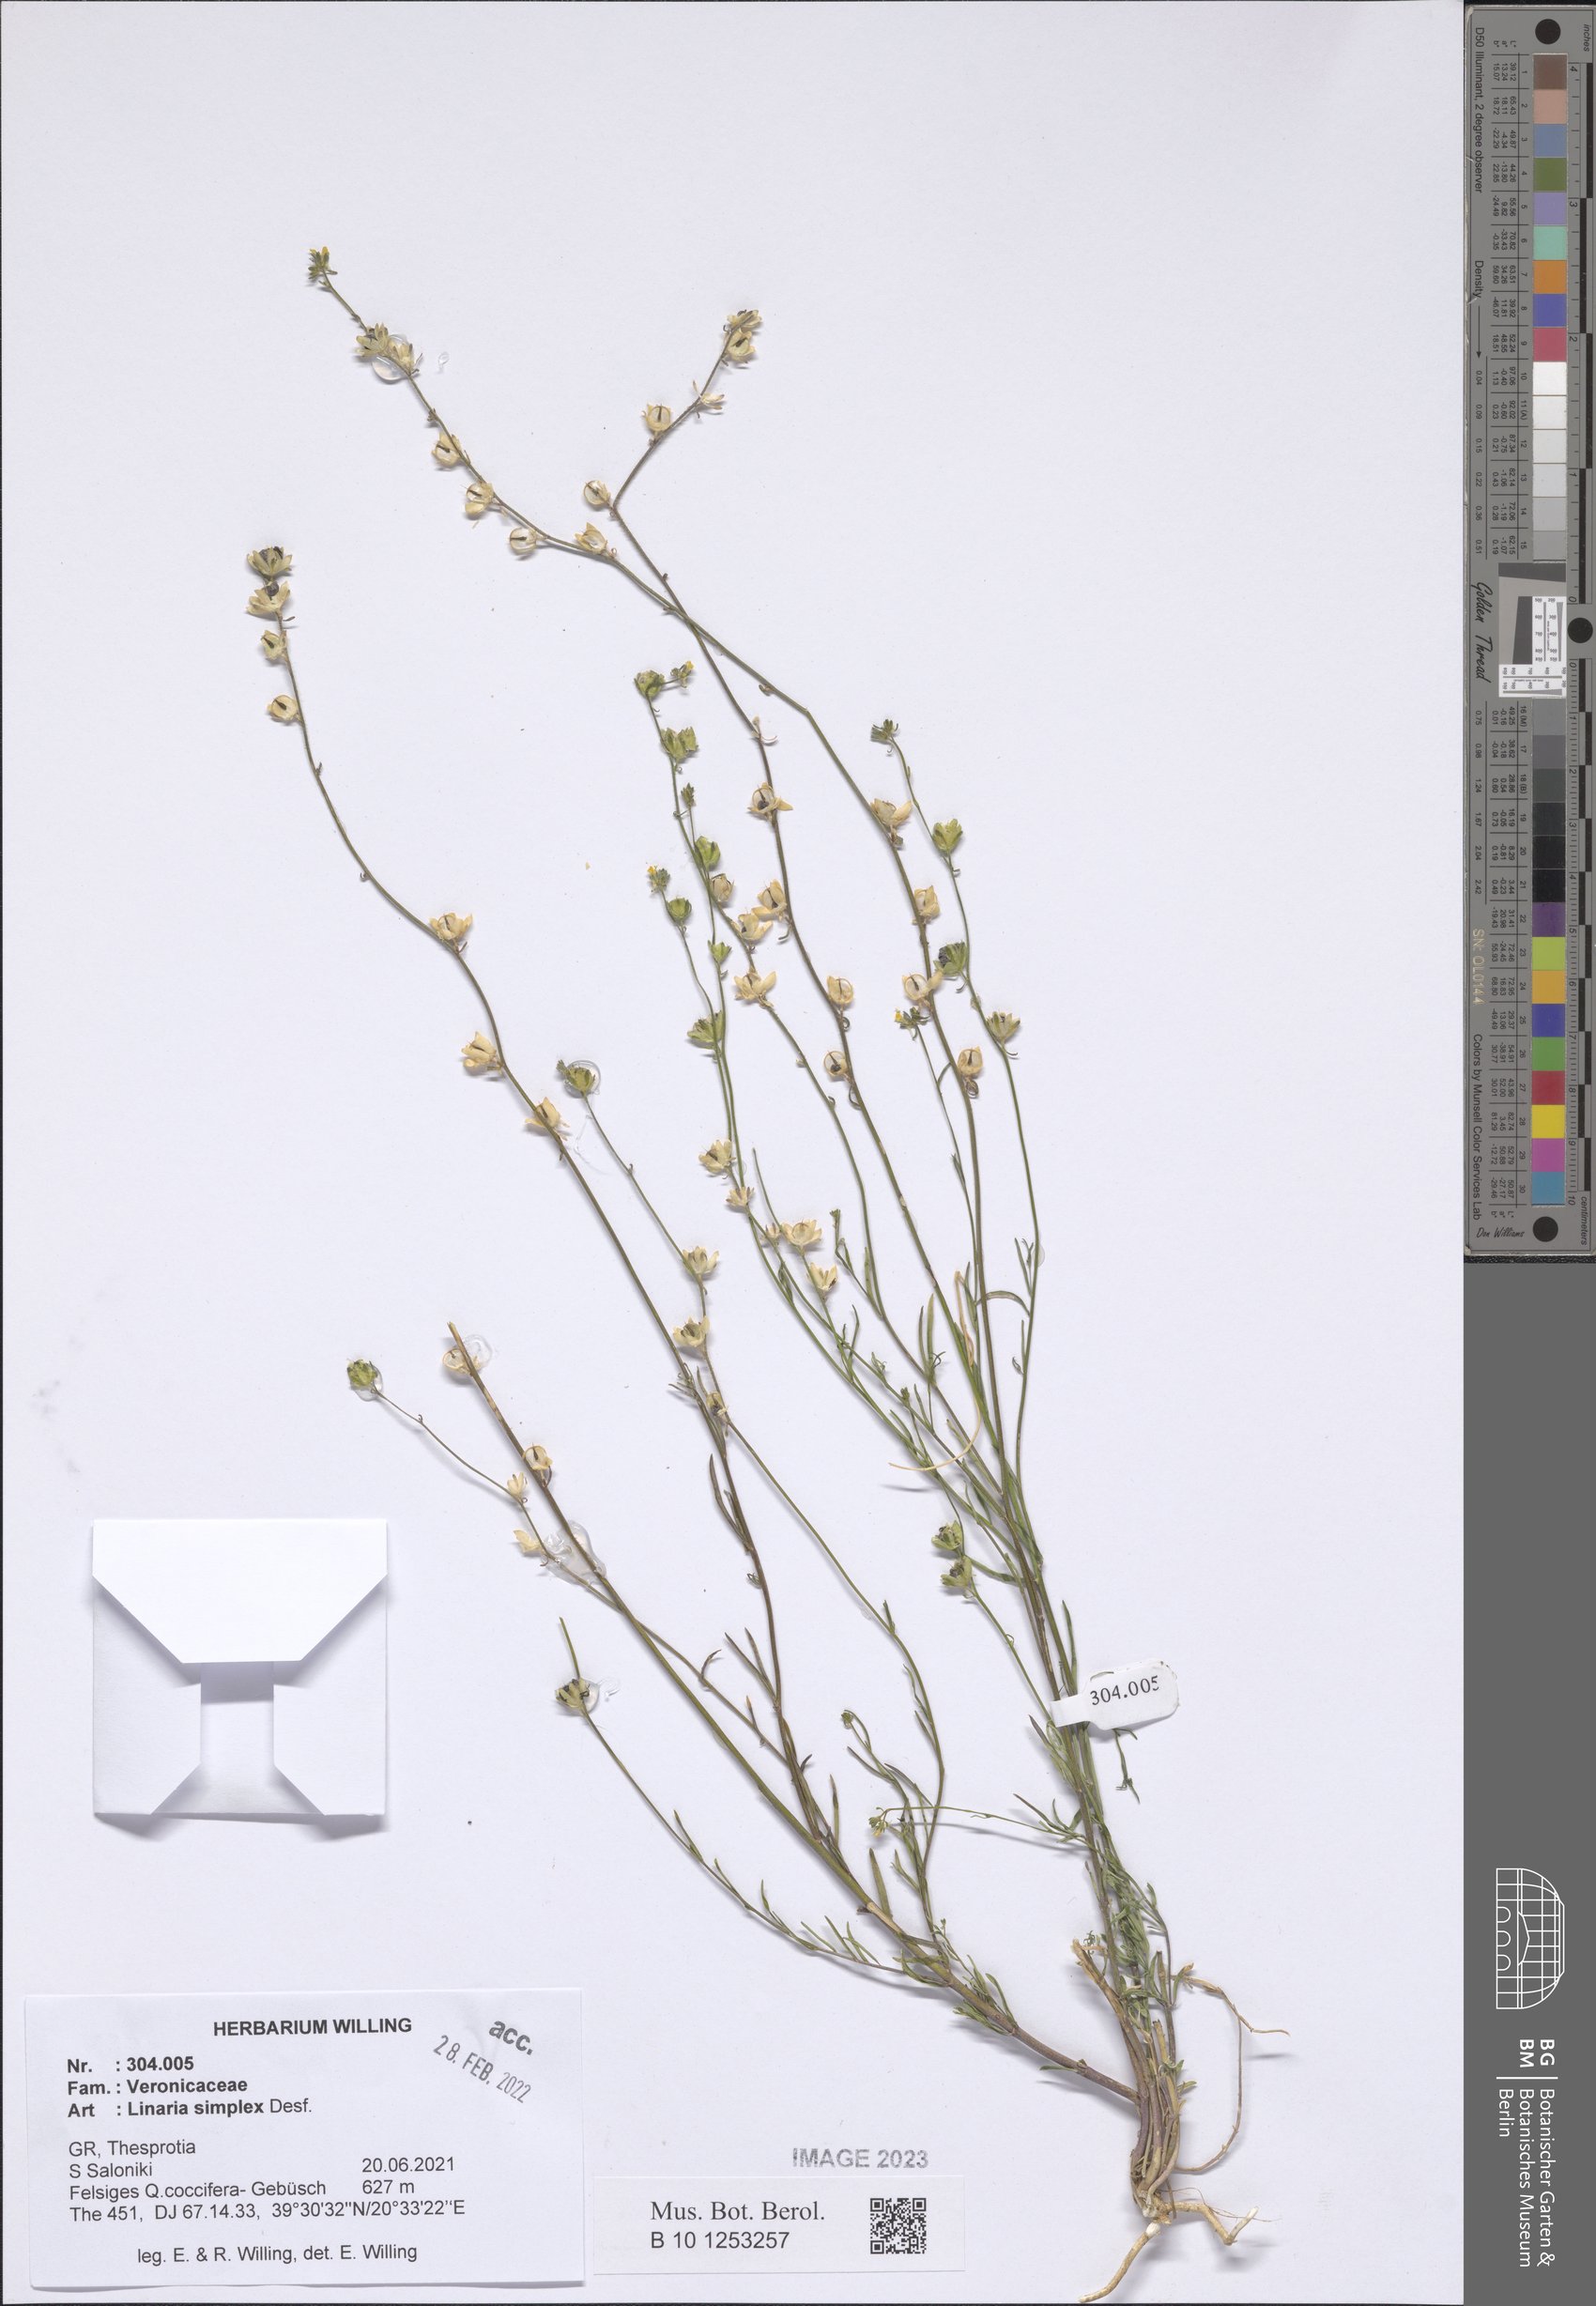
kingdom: Plantae
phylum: Tracheophyta
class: Magnoliopsida
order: Lamiales
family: Plantaginaceae
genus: Linaria
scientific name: Linaria simplex
